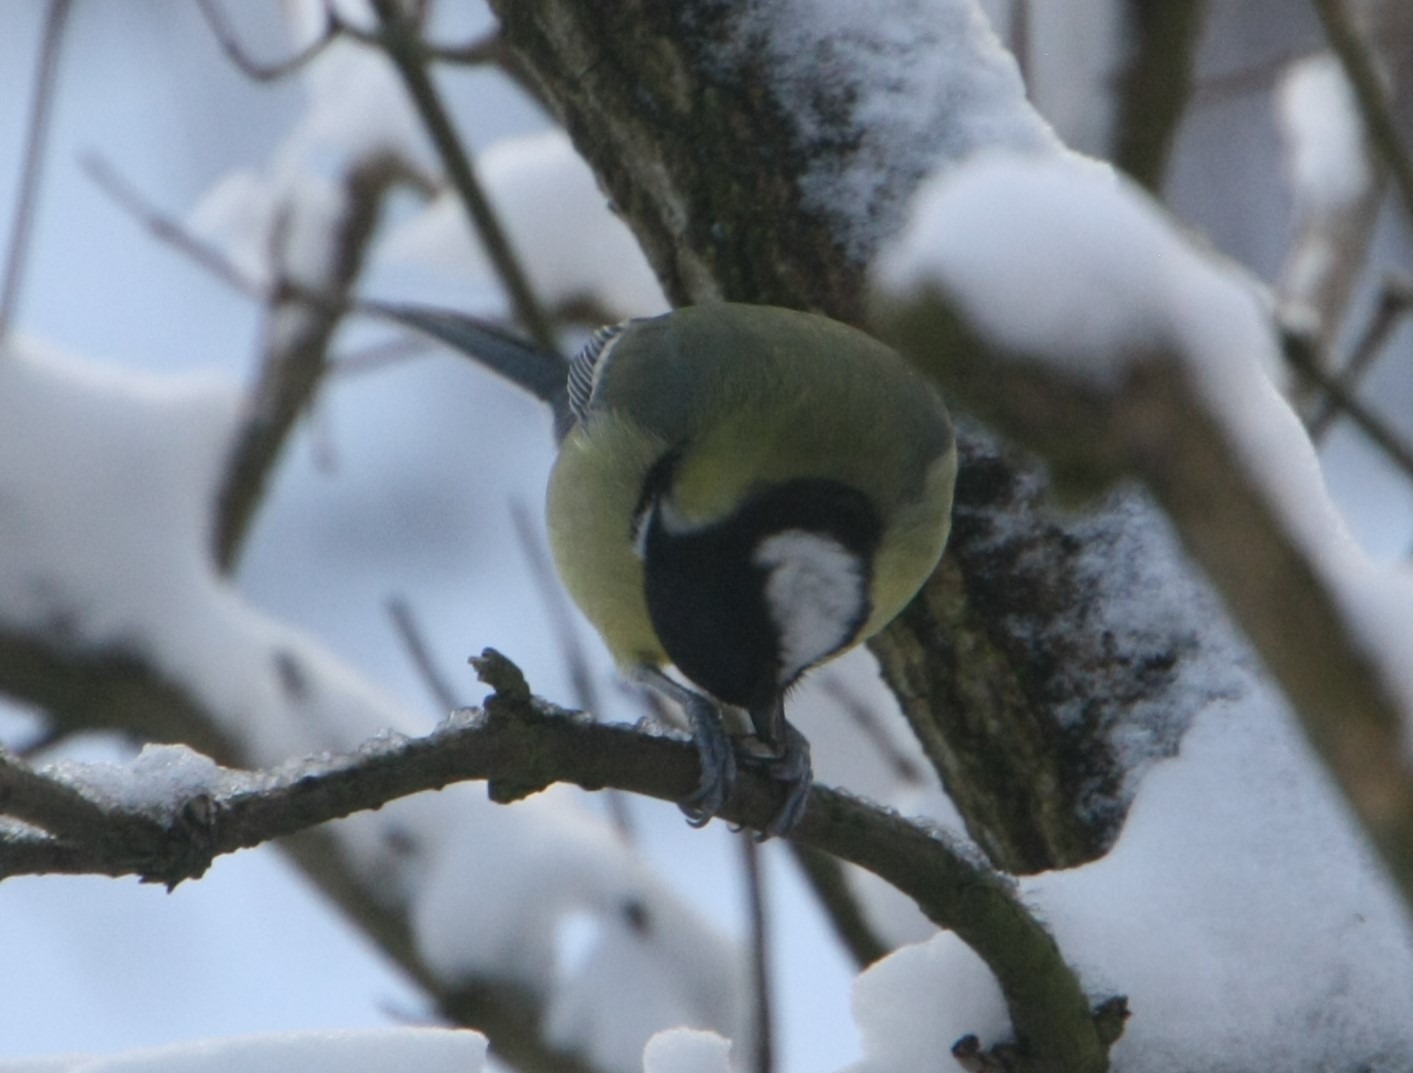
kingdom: Animalia
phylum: Chordata
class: Aves
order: Passeriformes
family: Paridae
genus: Parus
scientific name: Parus major
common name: Musvit
